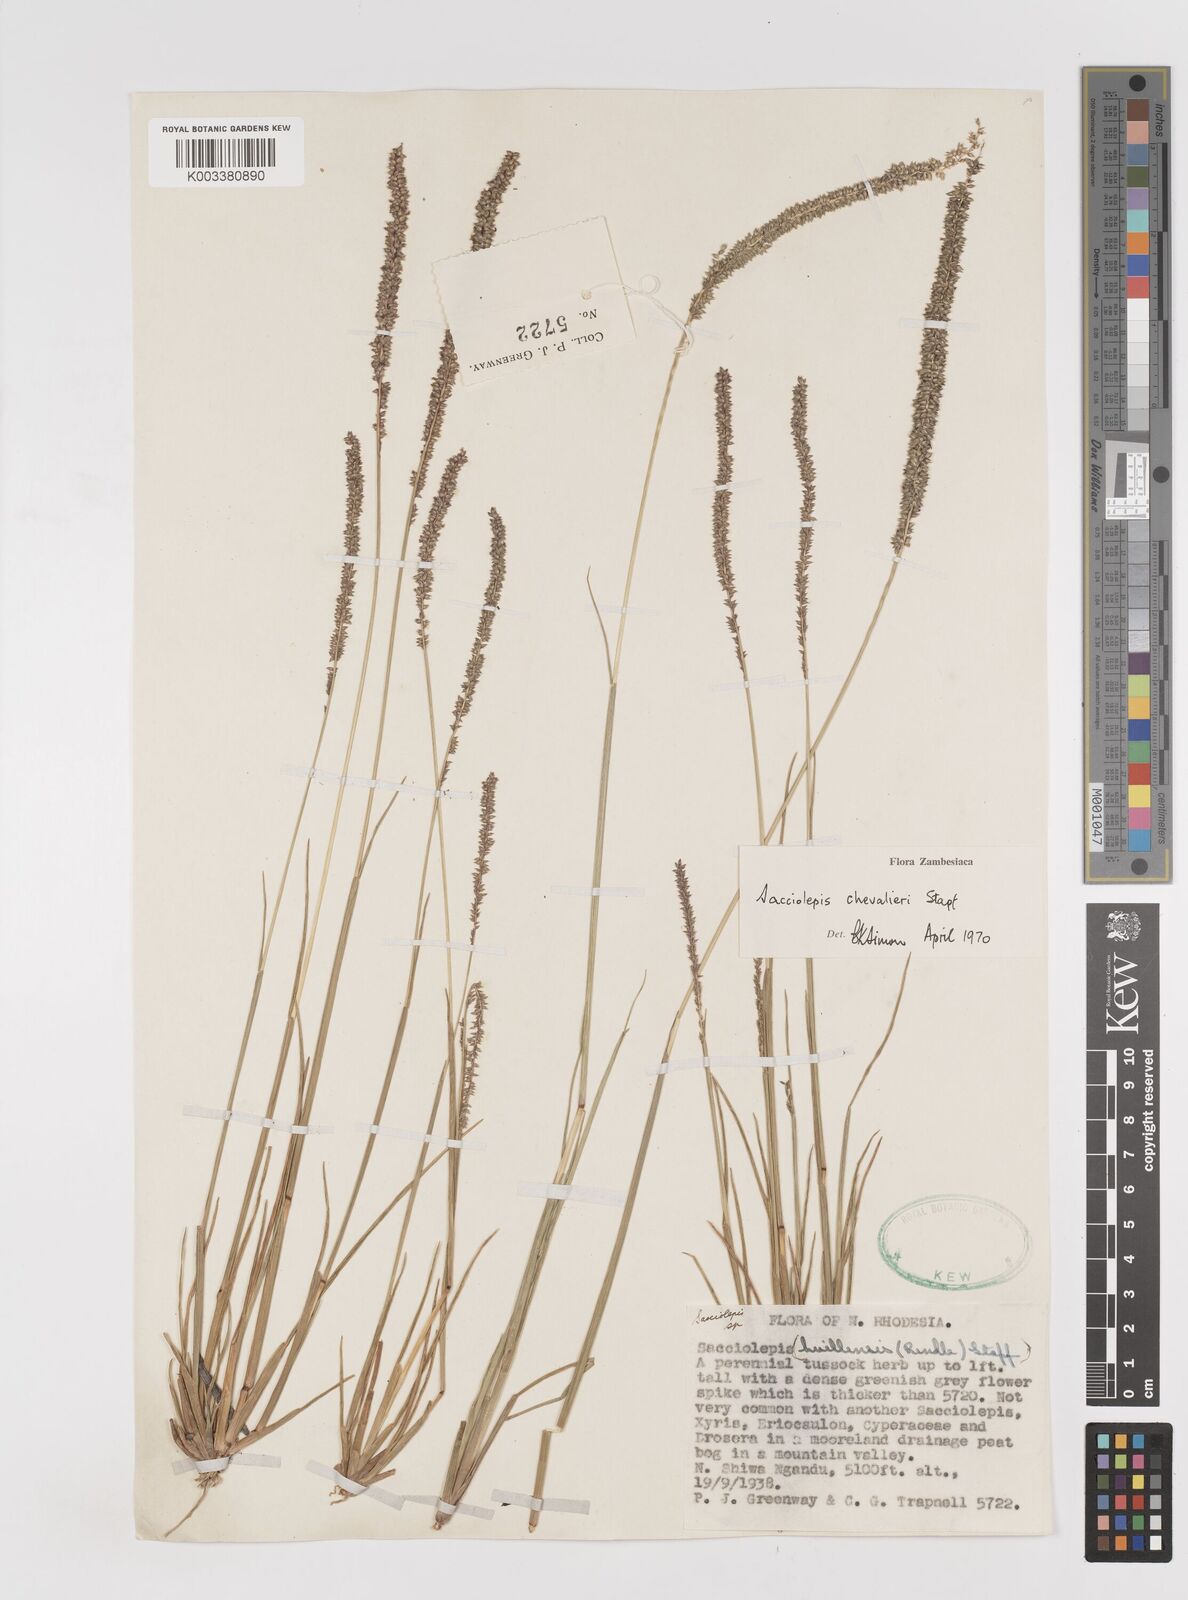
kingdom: Plantae
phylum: Tracheophyta
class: Liliopsida
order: Poales
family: Poaceae
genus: Sacciolepis
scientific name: Sacciolepis chevalieri
